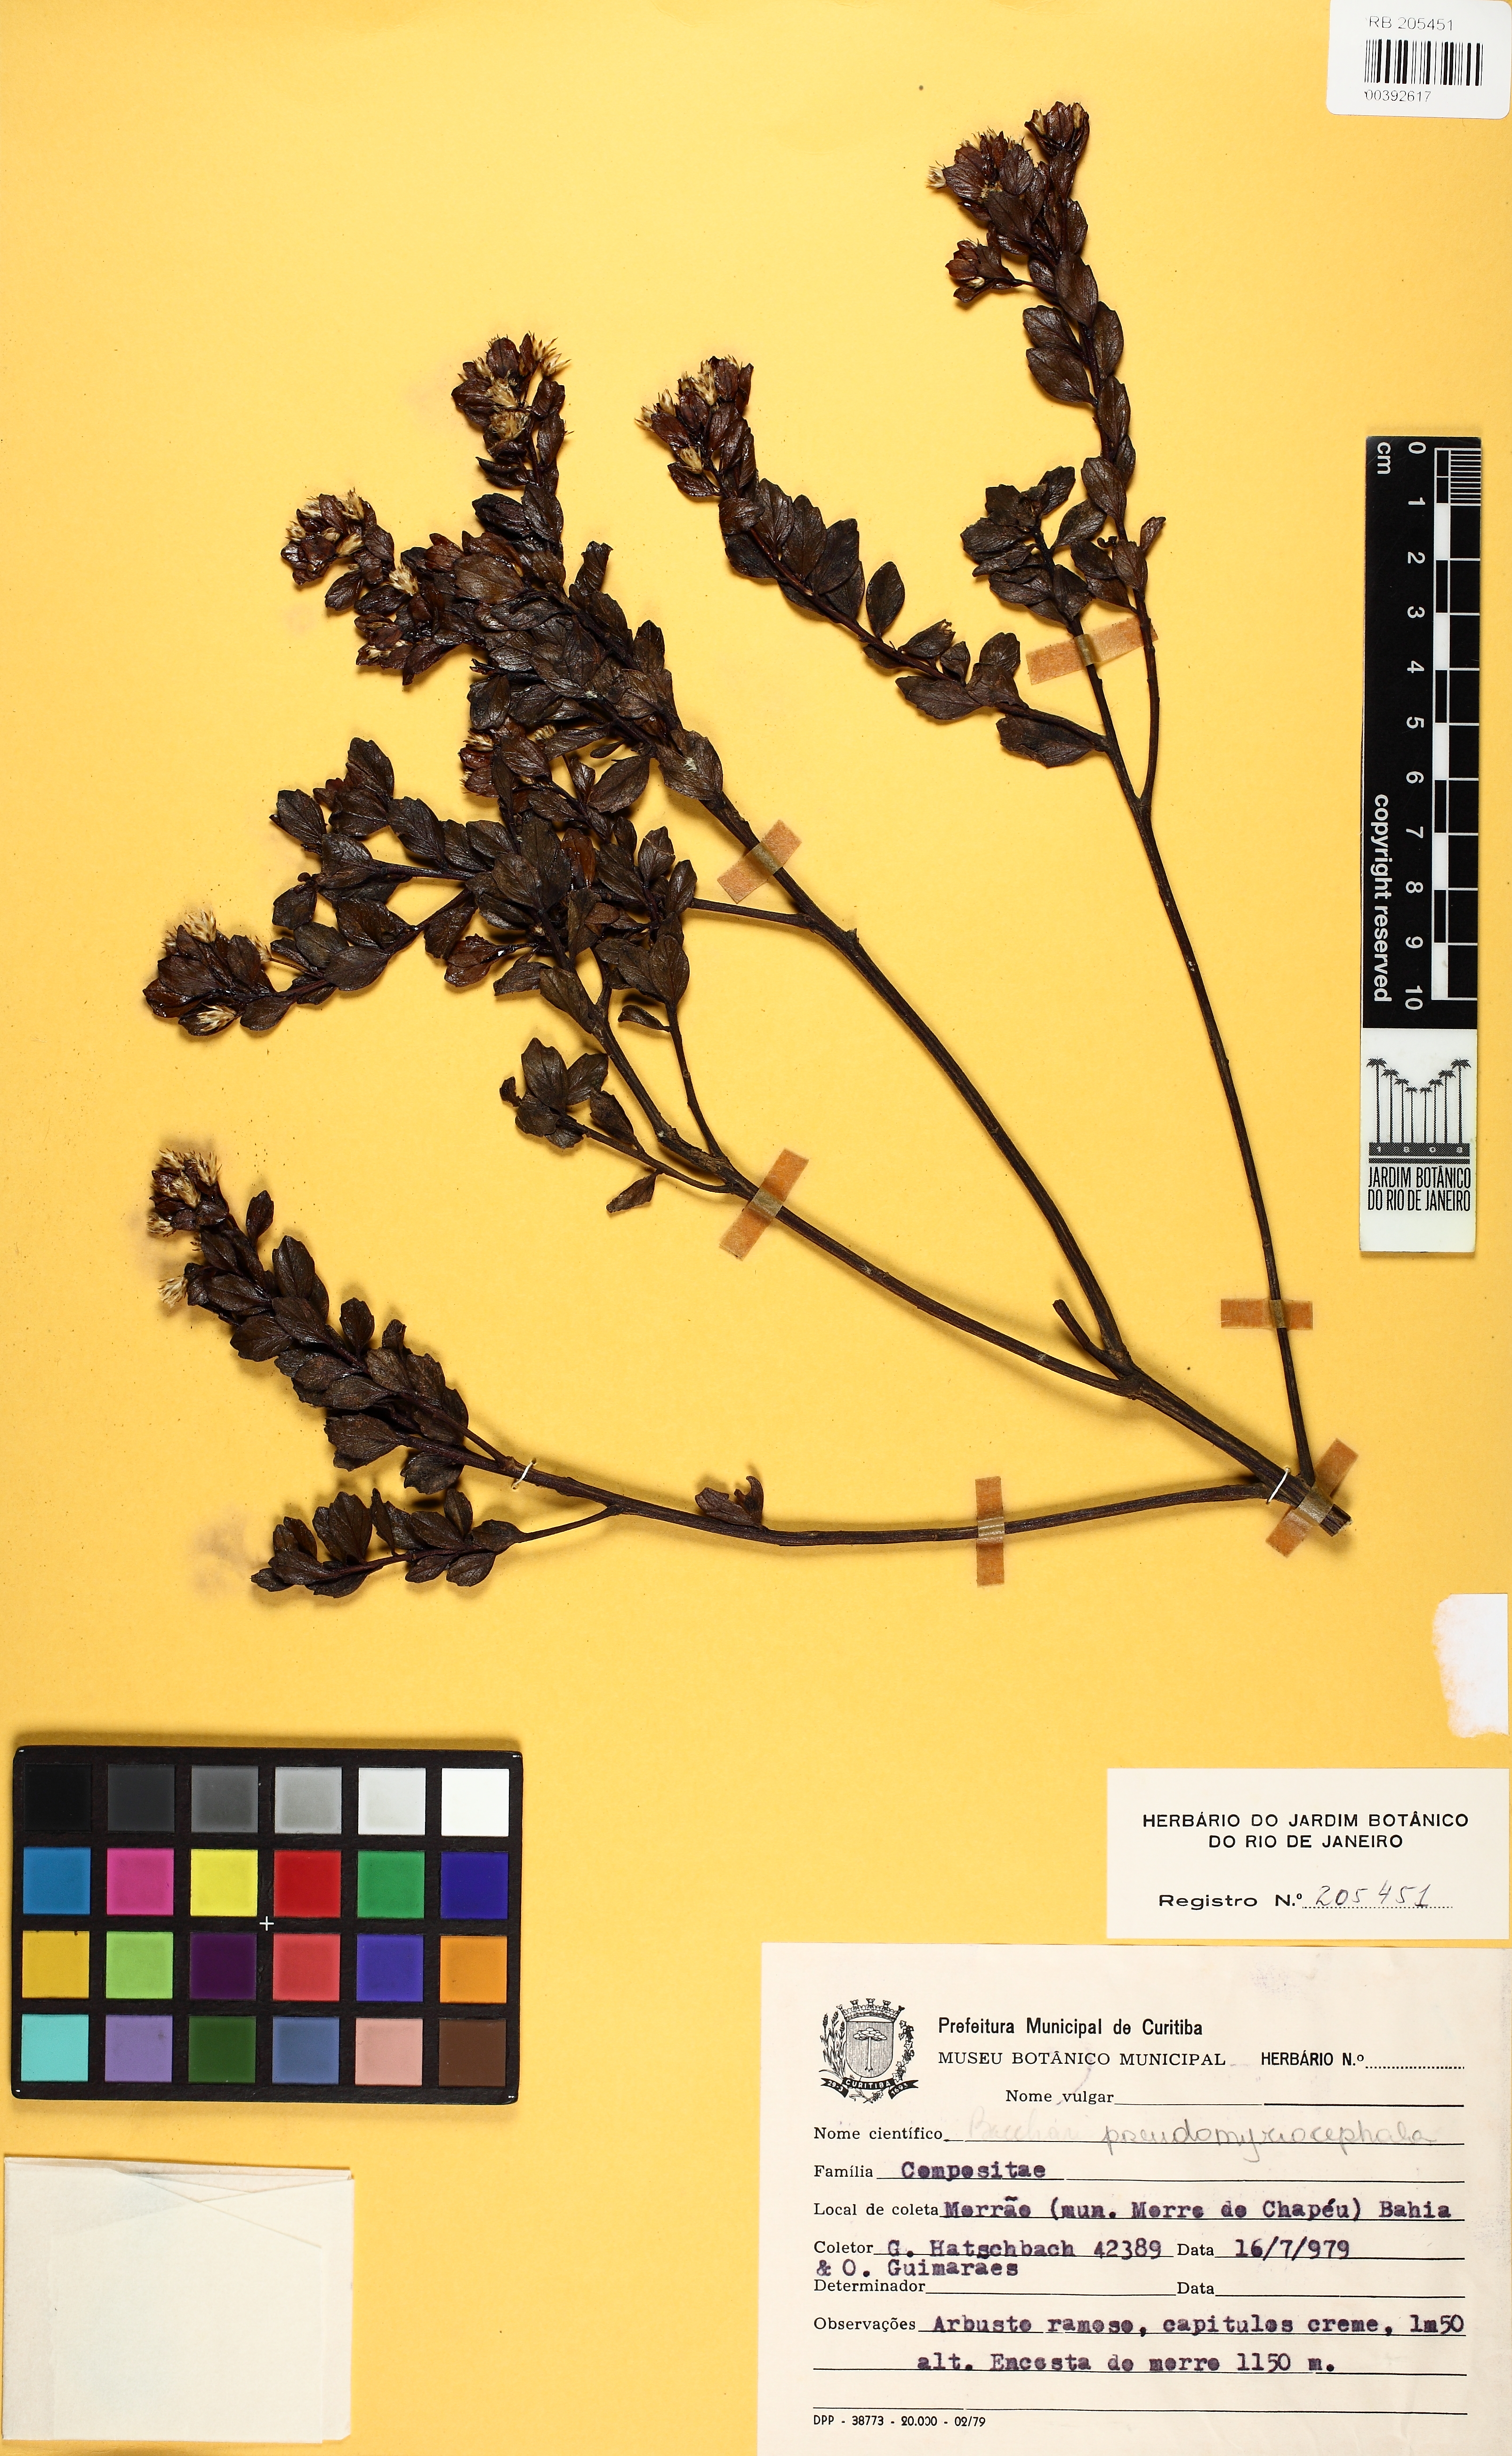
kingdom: Plantae
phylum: Tracheophyta
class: Magnoliopsida
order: Asterales
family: Asteraceae
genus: Baccharis
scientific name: Baccharis retusa
